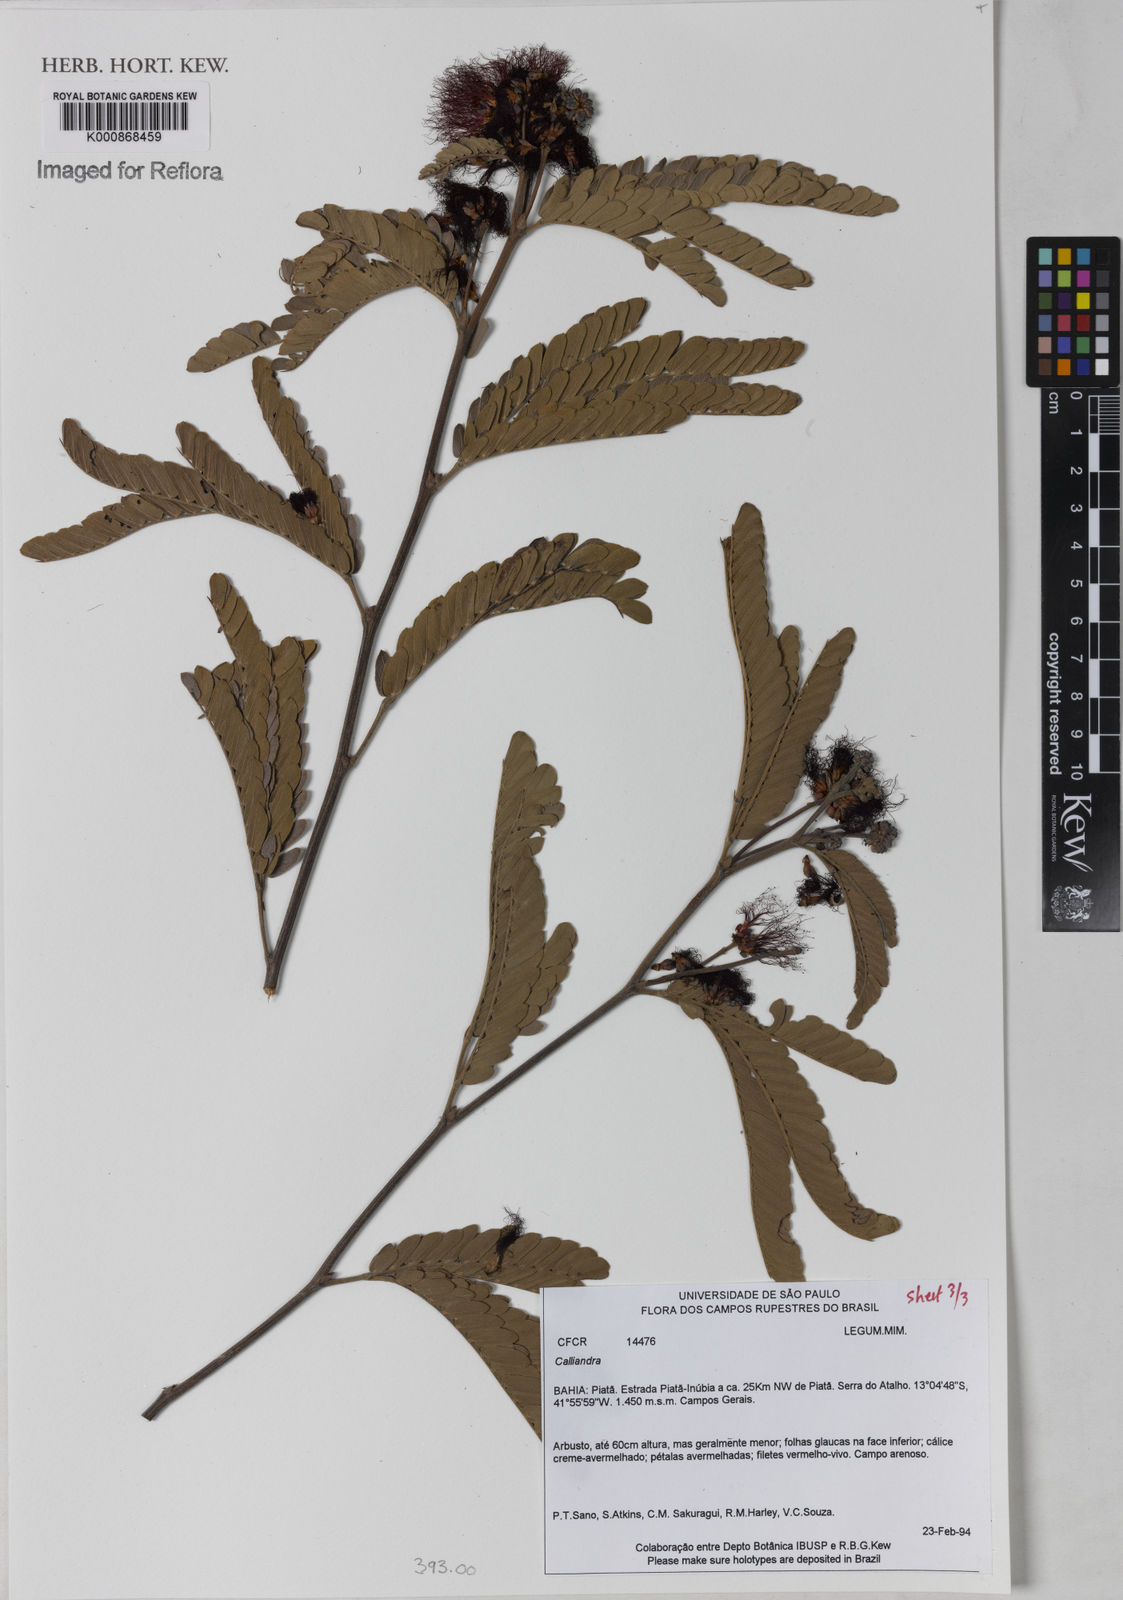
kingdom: Plantae
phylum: Tracheophyta
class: Magnoliopsida
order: Fabales
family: Fabaceae
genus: Calliandra
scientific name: Calliandra
